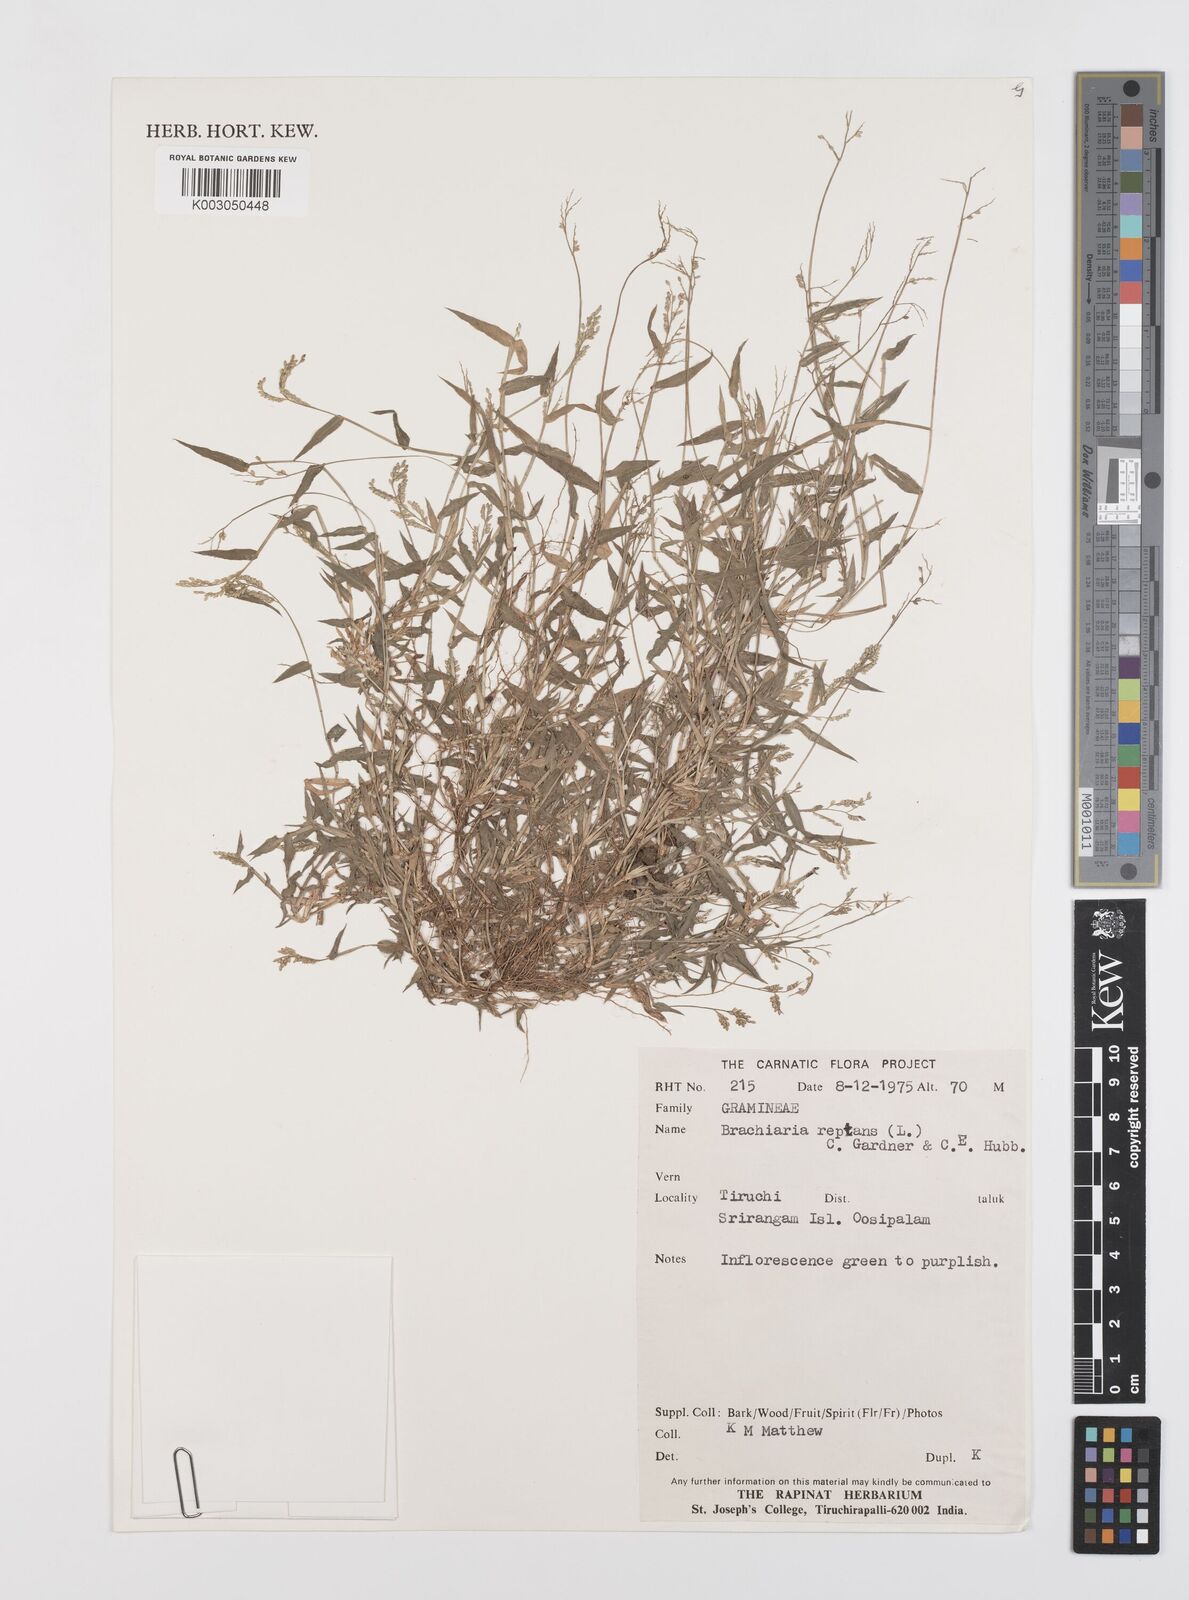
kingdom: Plantae
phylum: Tracheophyta
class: Liliopsida
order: Poales
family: Poaceae
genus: Urochloa
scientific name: Urochloa reptans
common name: Sprawling signalgrass
